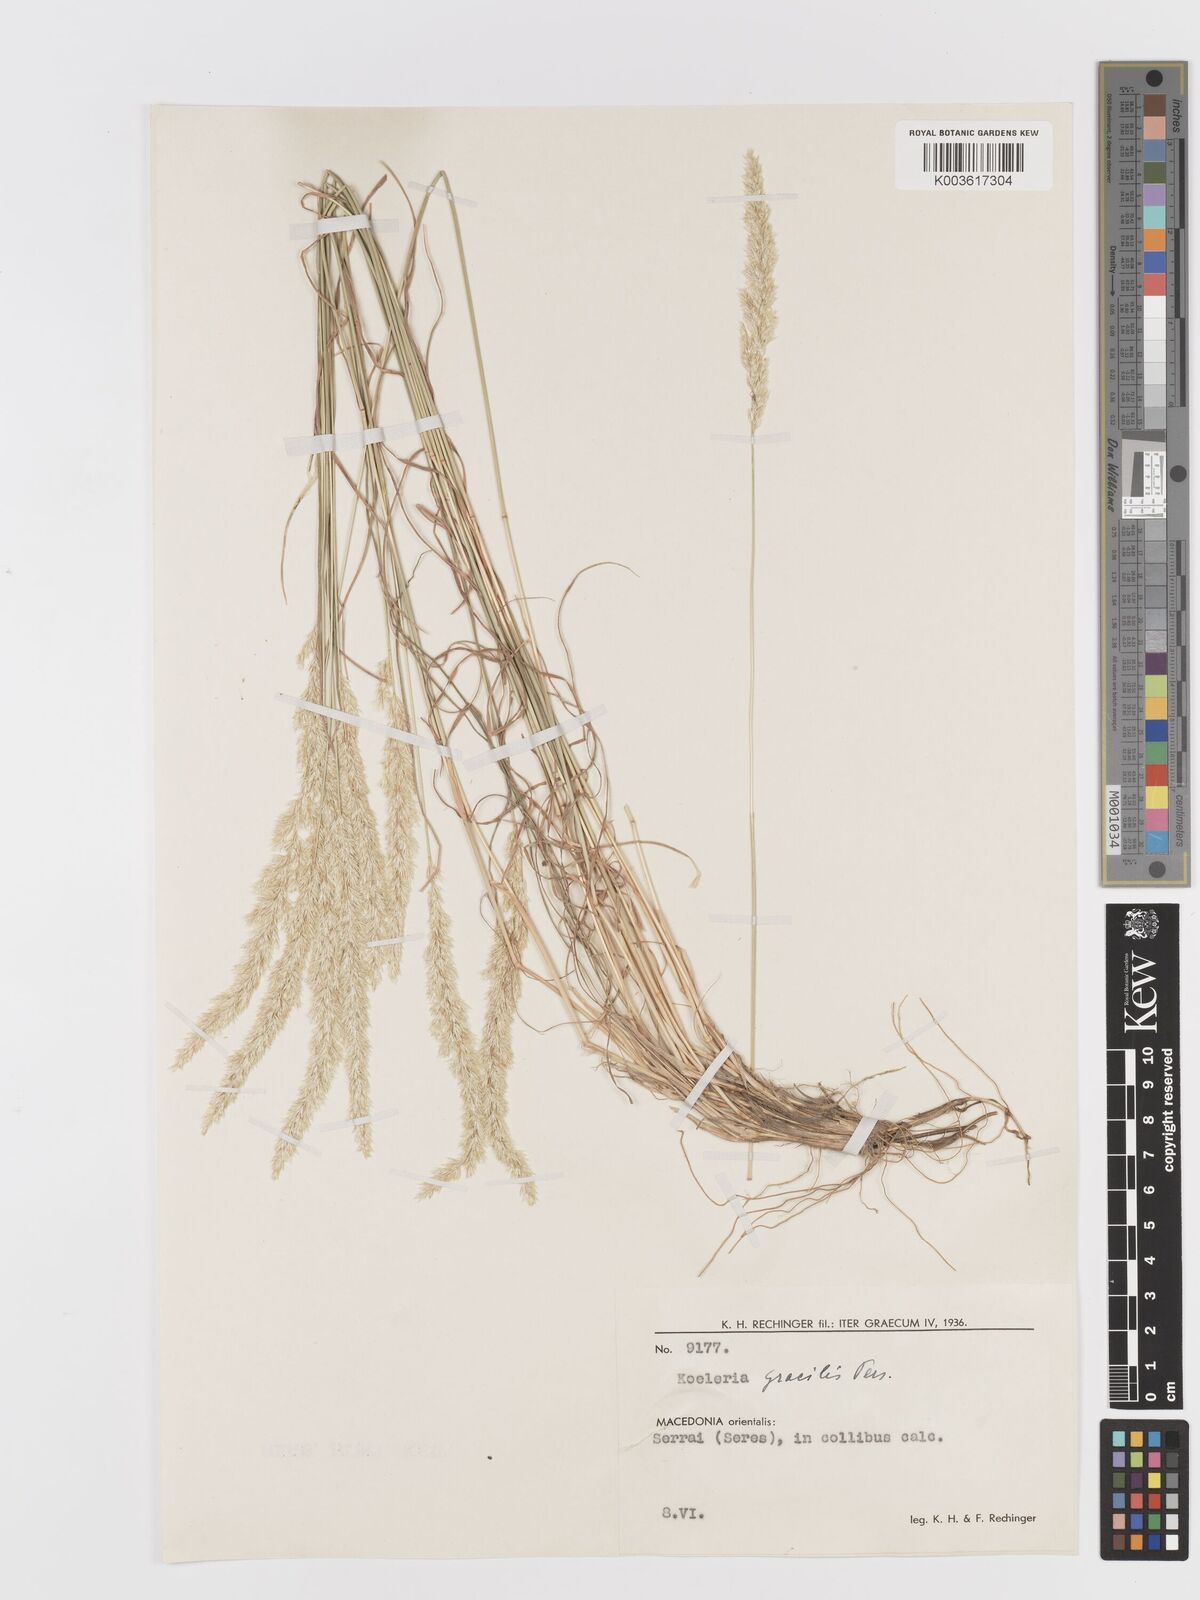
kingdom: Plantae
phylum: Tracheophyta
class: Liliopsida
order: Poales
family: Poaceae
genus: Koeleria
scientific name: Koeleria macrantha
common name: Crested hair-grass
